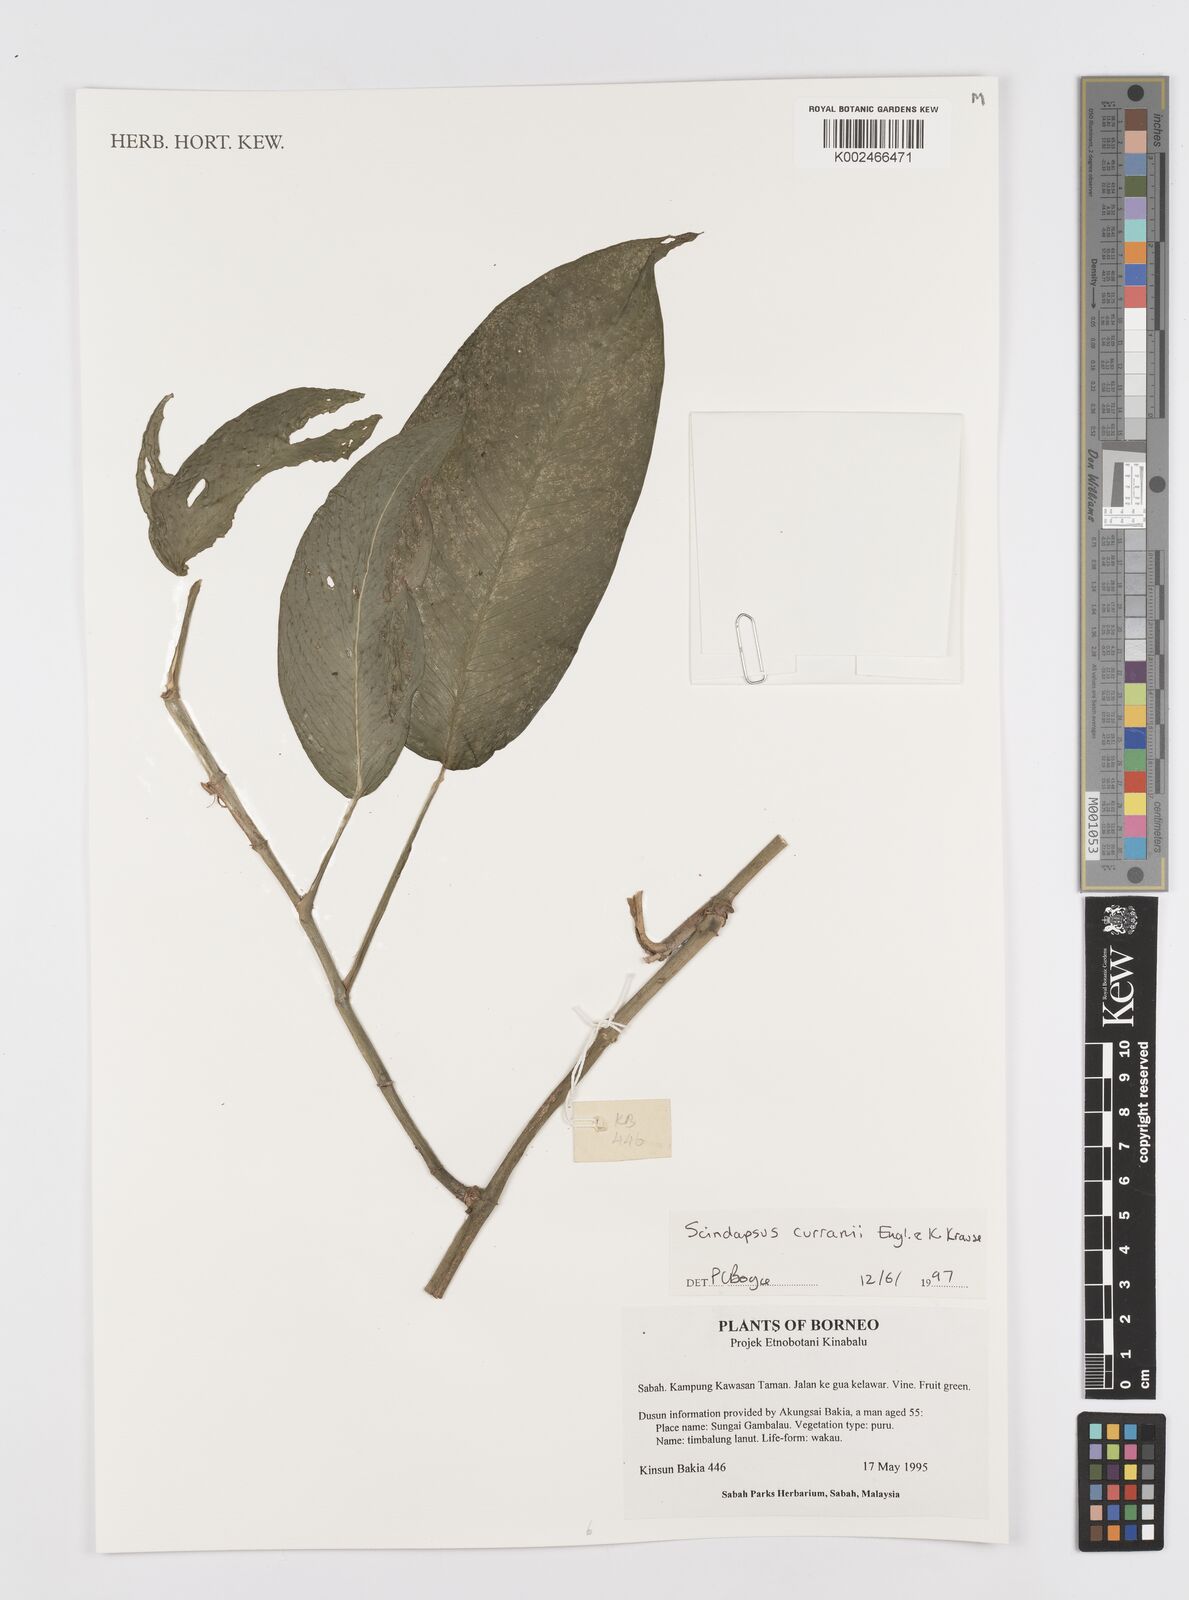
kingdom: Plantae
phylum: Tracheophyta
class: Liliopsida
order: Alismatales
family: Araceae
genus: Scindapsus
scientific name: Scindapsus curranii
